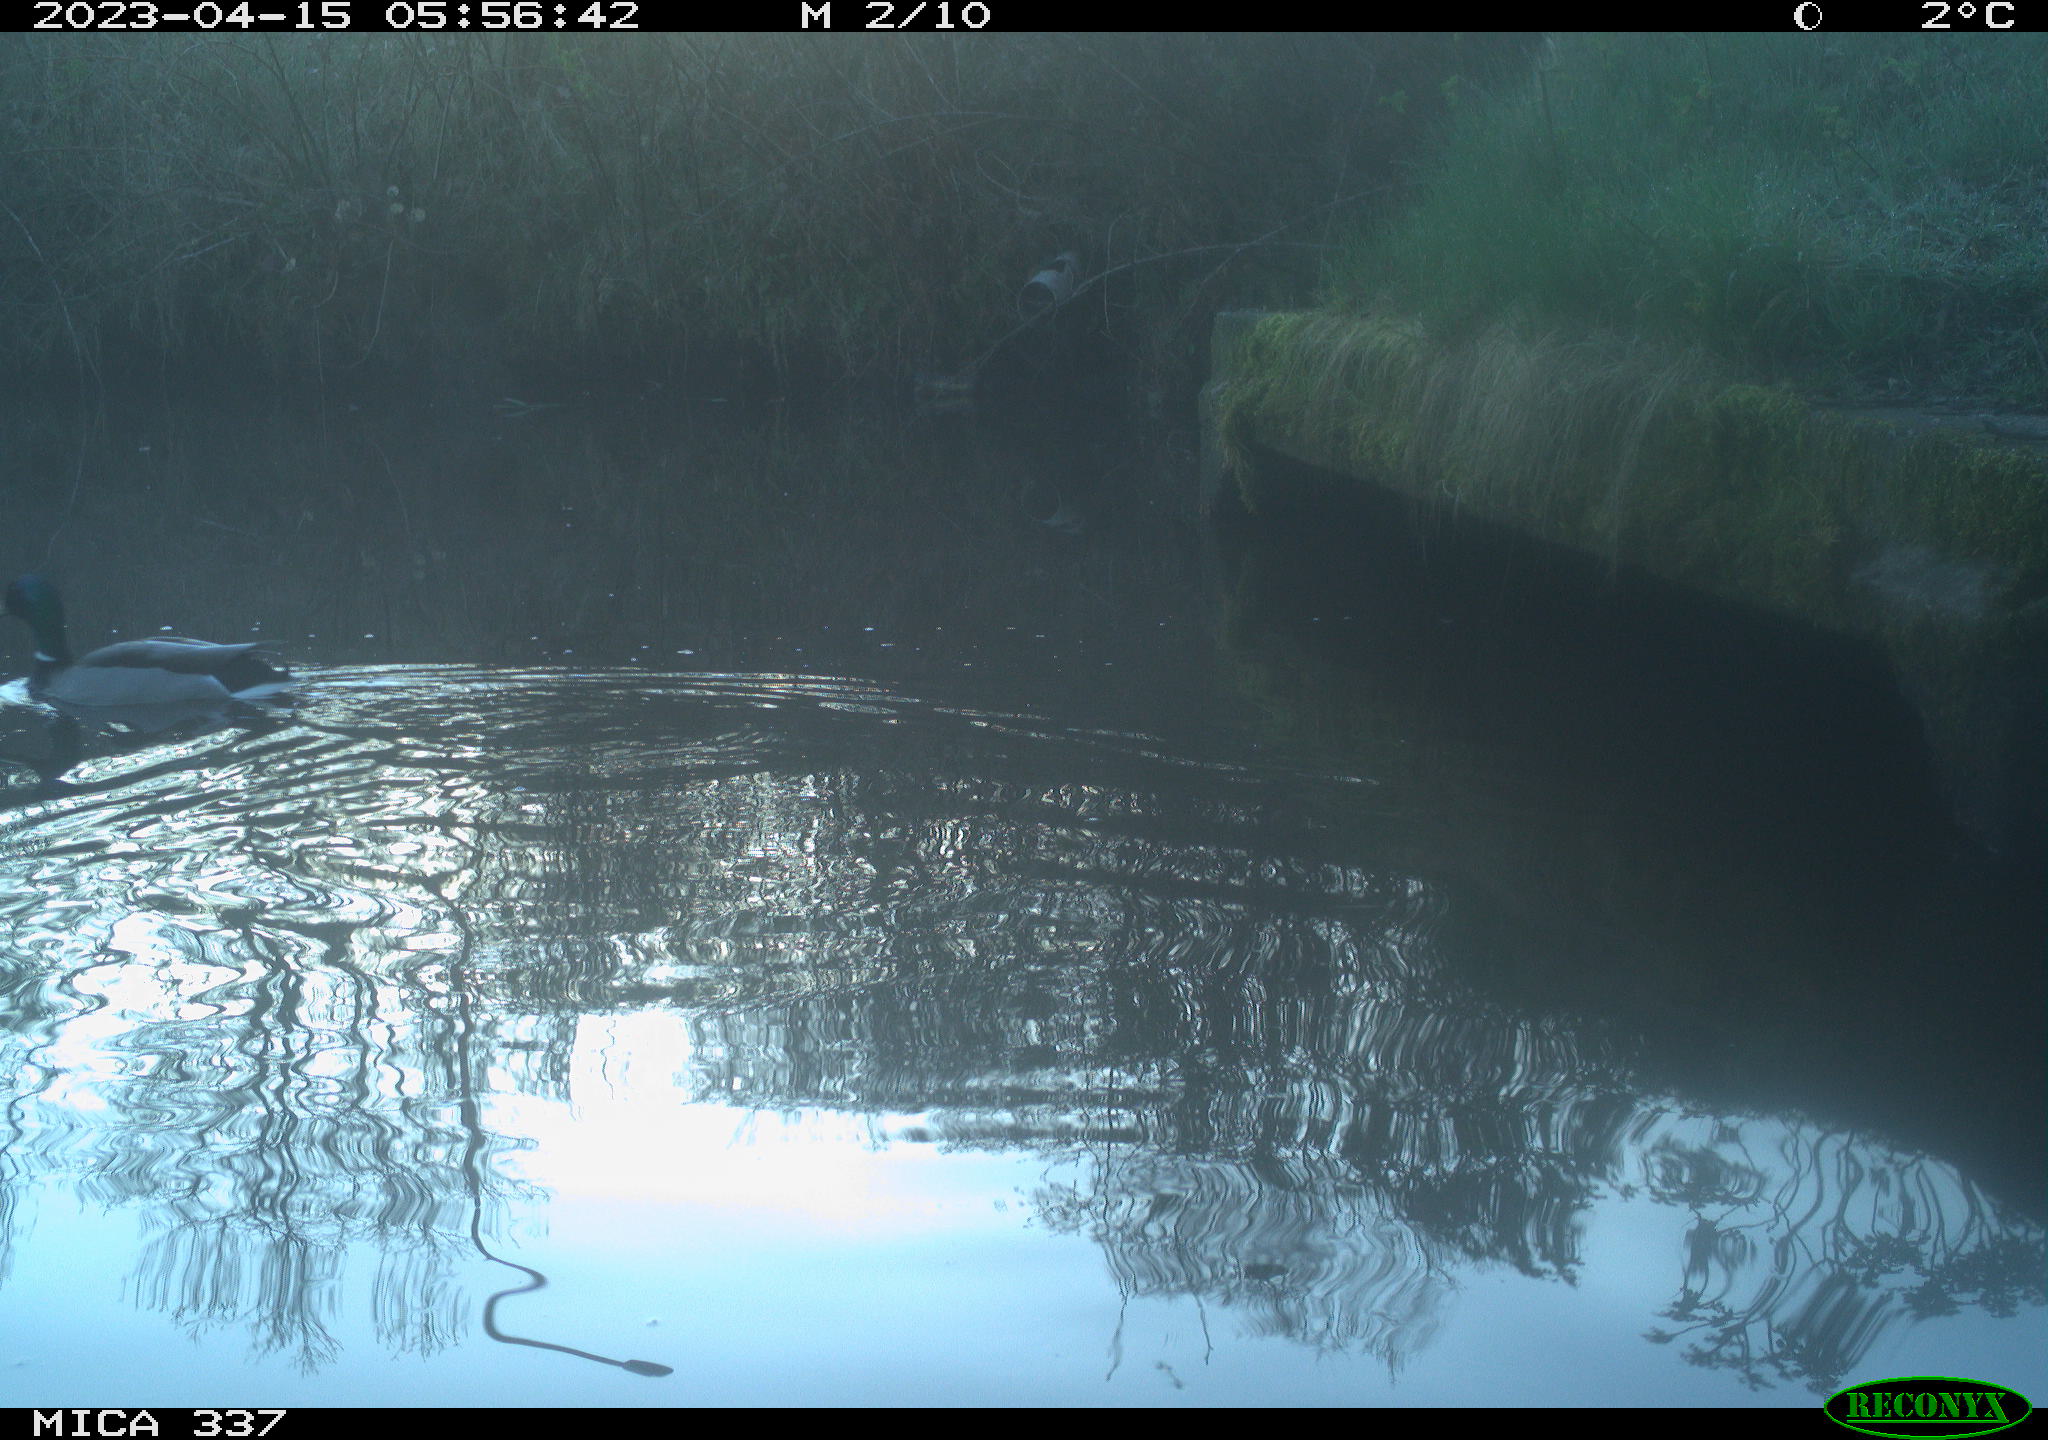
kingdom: Animalia
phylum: Chordata
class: Aves
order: Anseriformes
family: Anatidae
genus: Anas
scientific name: Anas
